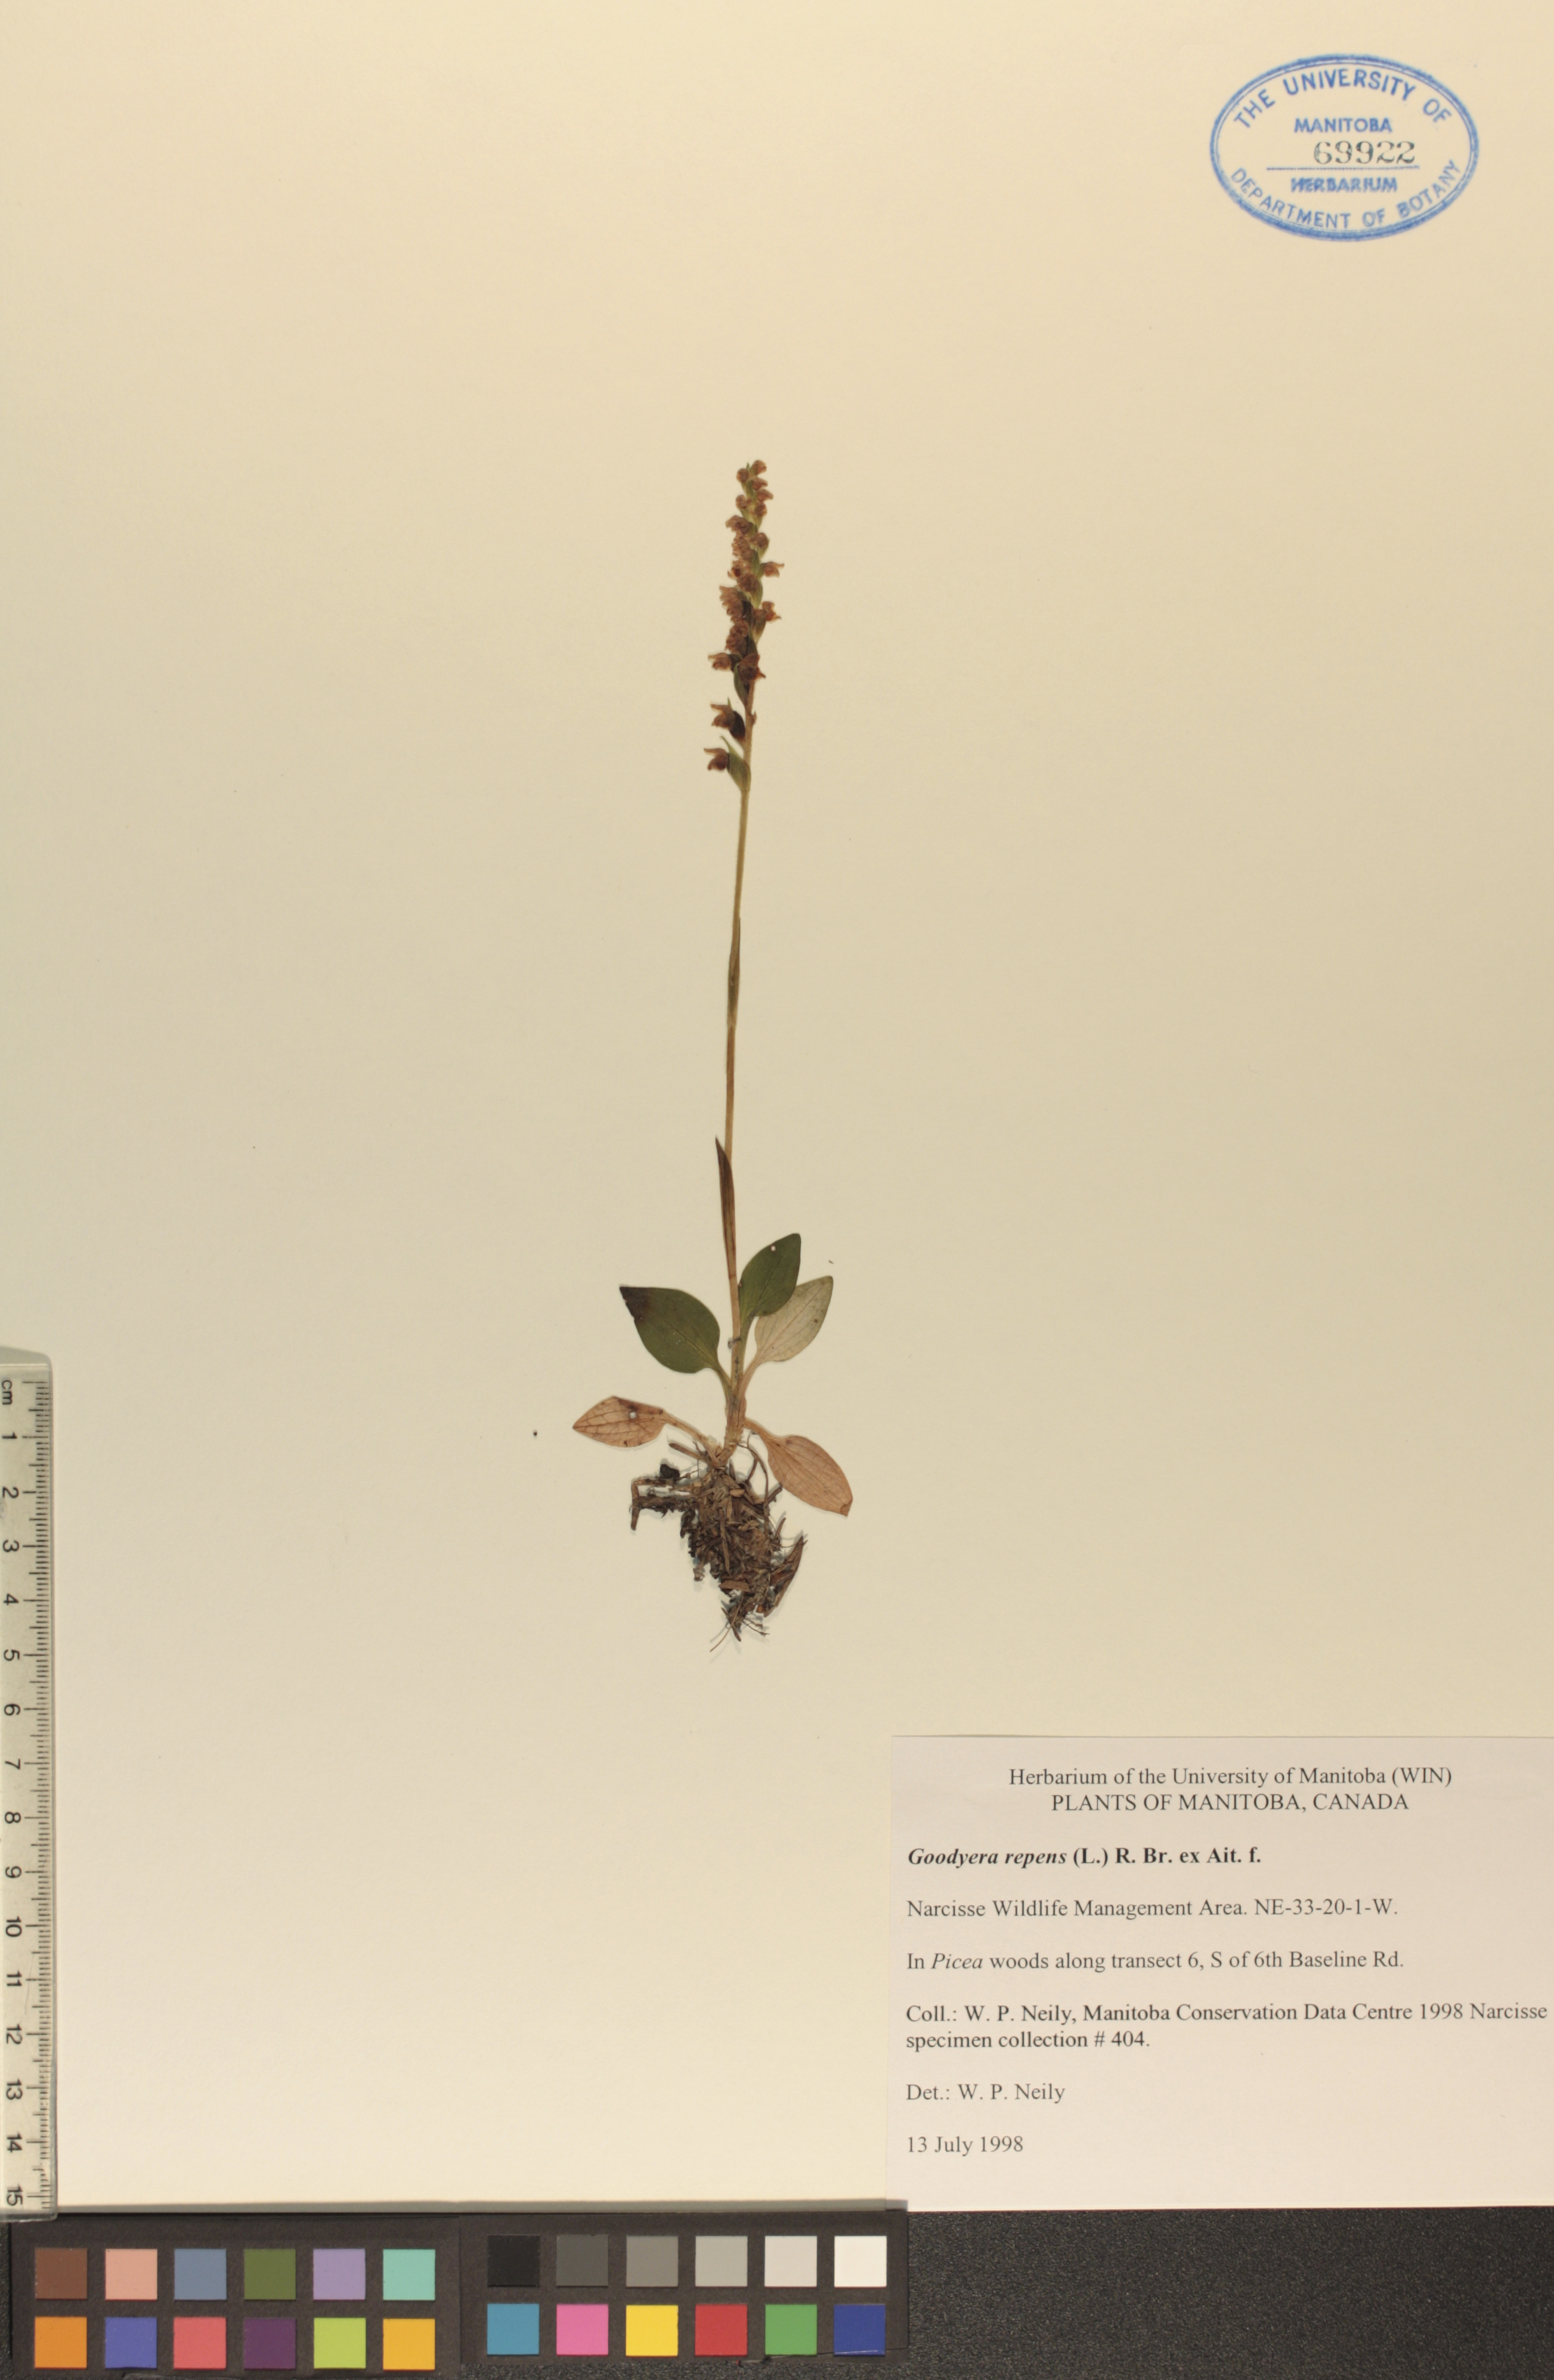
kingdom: Plantae
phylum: Tracheophyta
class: Liliopsida
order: Asparagales
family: Orchidaceae
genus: Goodyera
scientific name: Goodyera repens
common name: Creeping lady's-tresses
